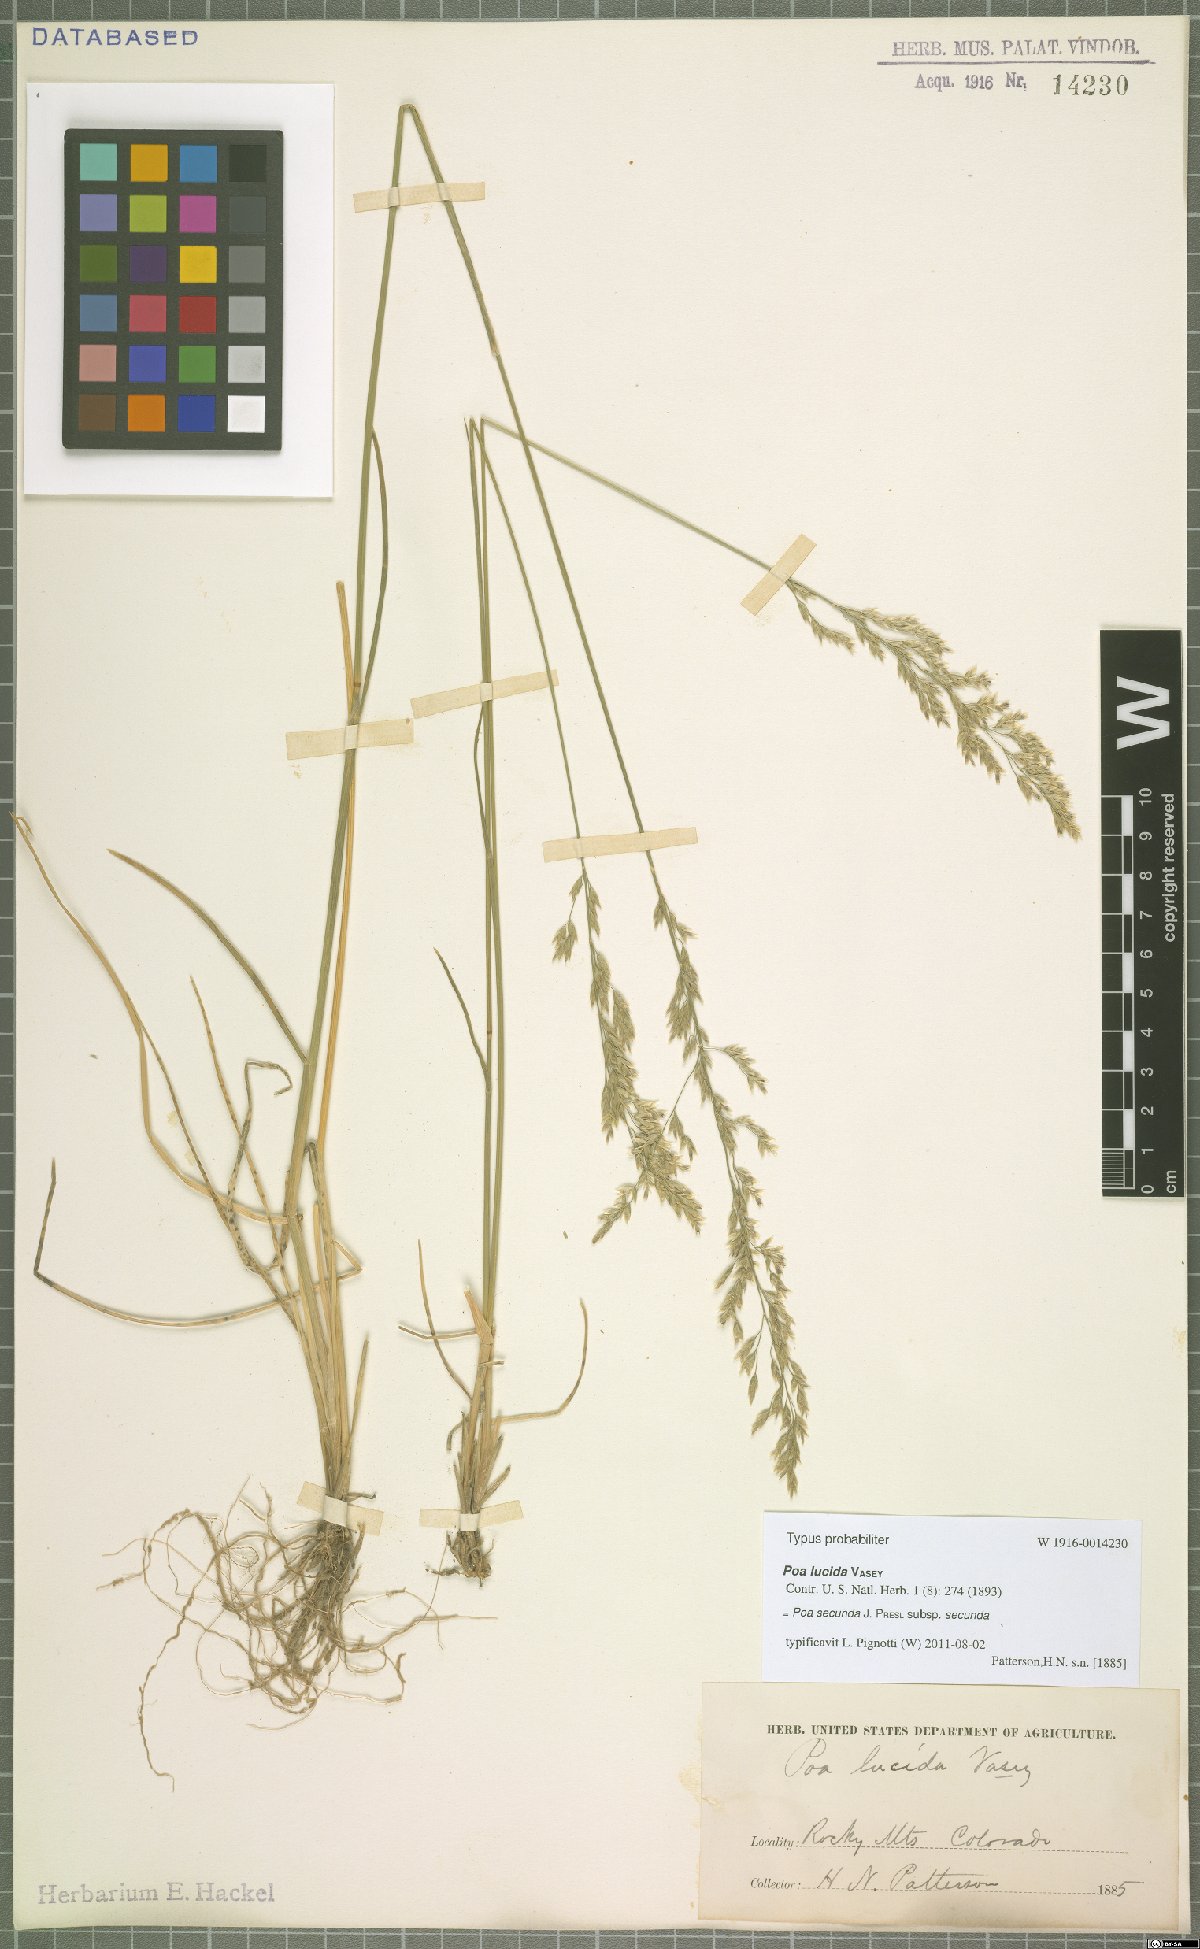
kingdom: Plantae
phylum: Tracheophyta
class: Liliopsida
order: Poales
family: Poaceae
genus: Poa
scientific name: Poa secunda
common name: Sandberg bluegrass
